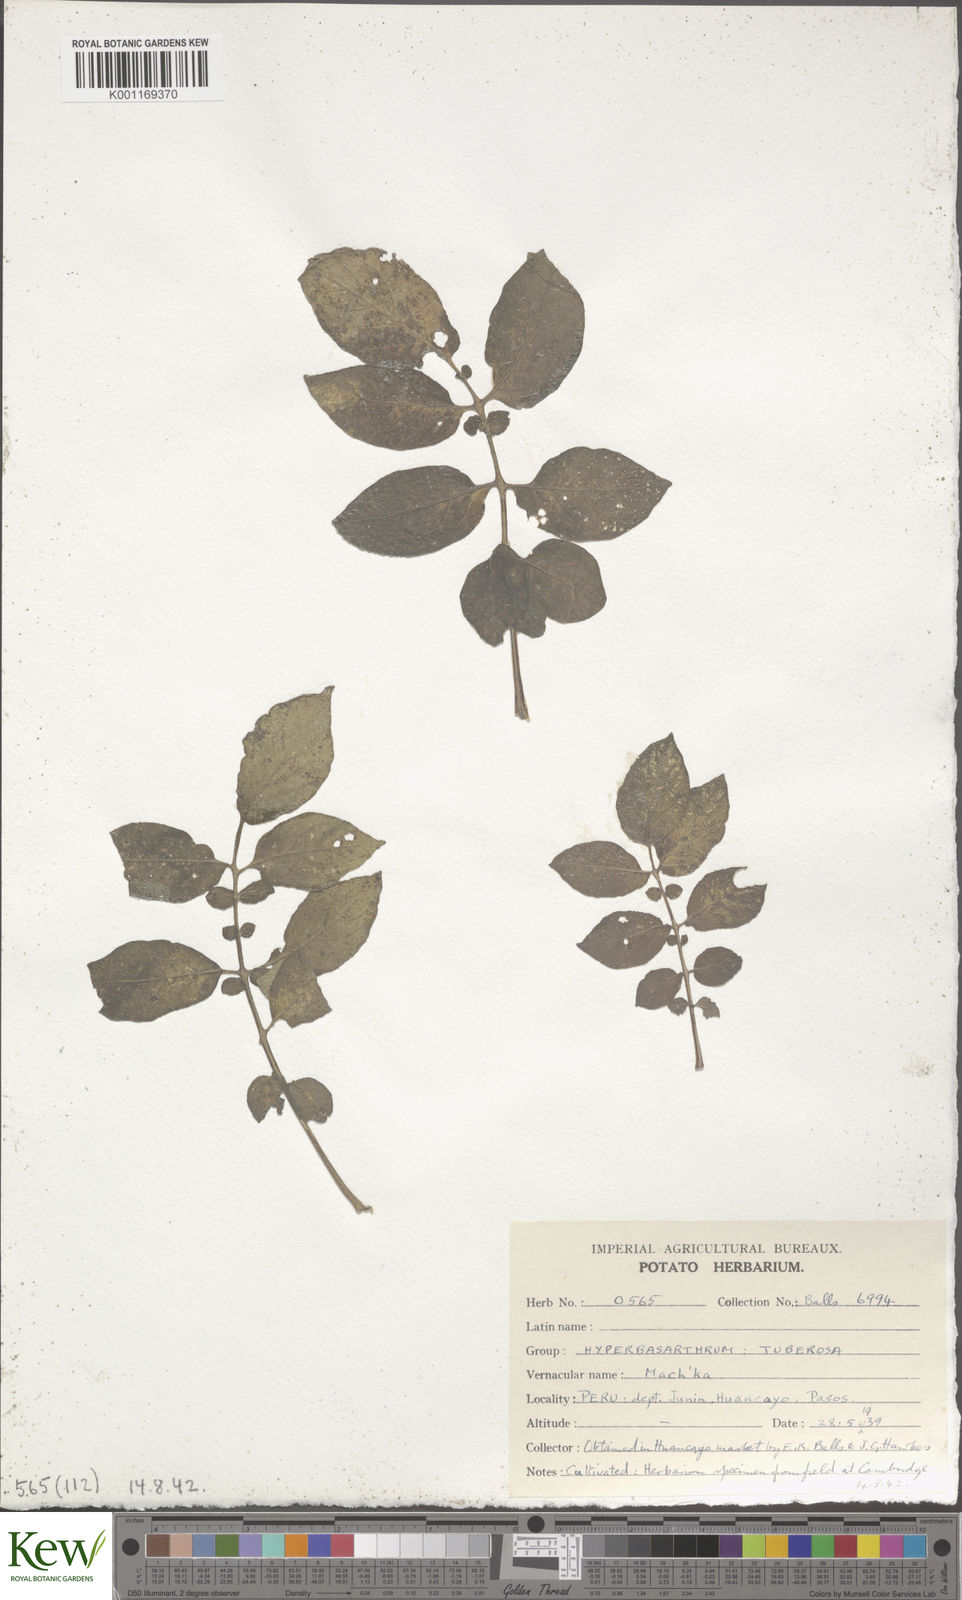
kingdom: Plantae
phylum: Tracheophyta
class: Magnoliopsida
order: Solanales
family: Solanaceae
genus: Solanum
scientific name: Solanum chaucha
